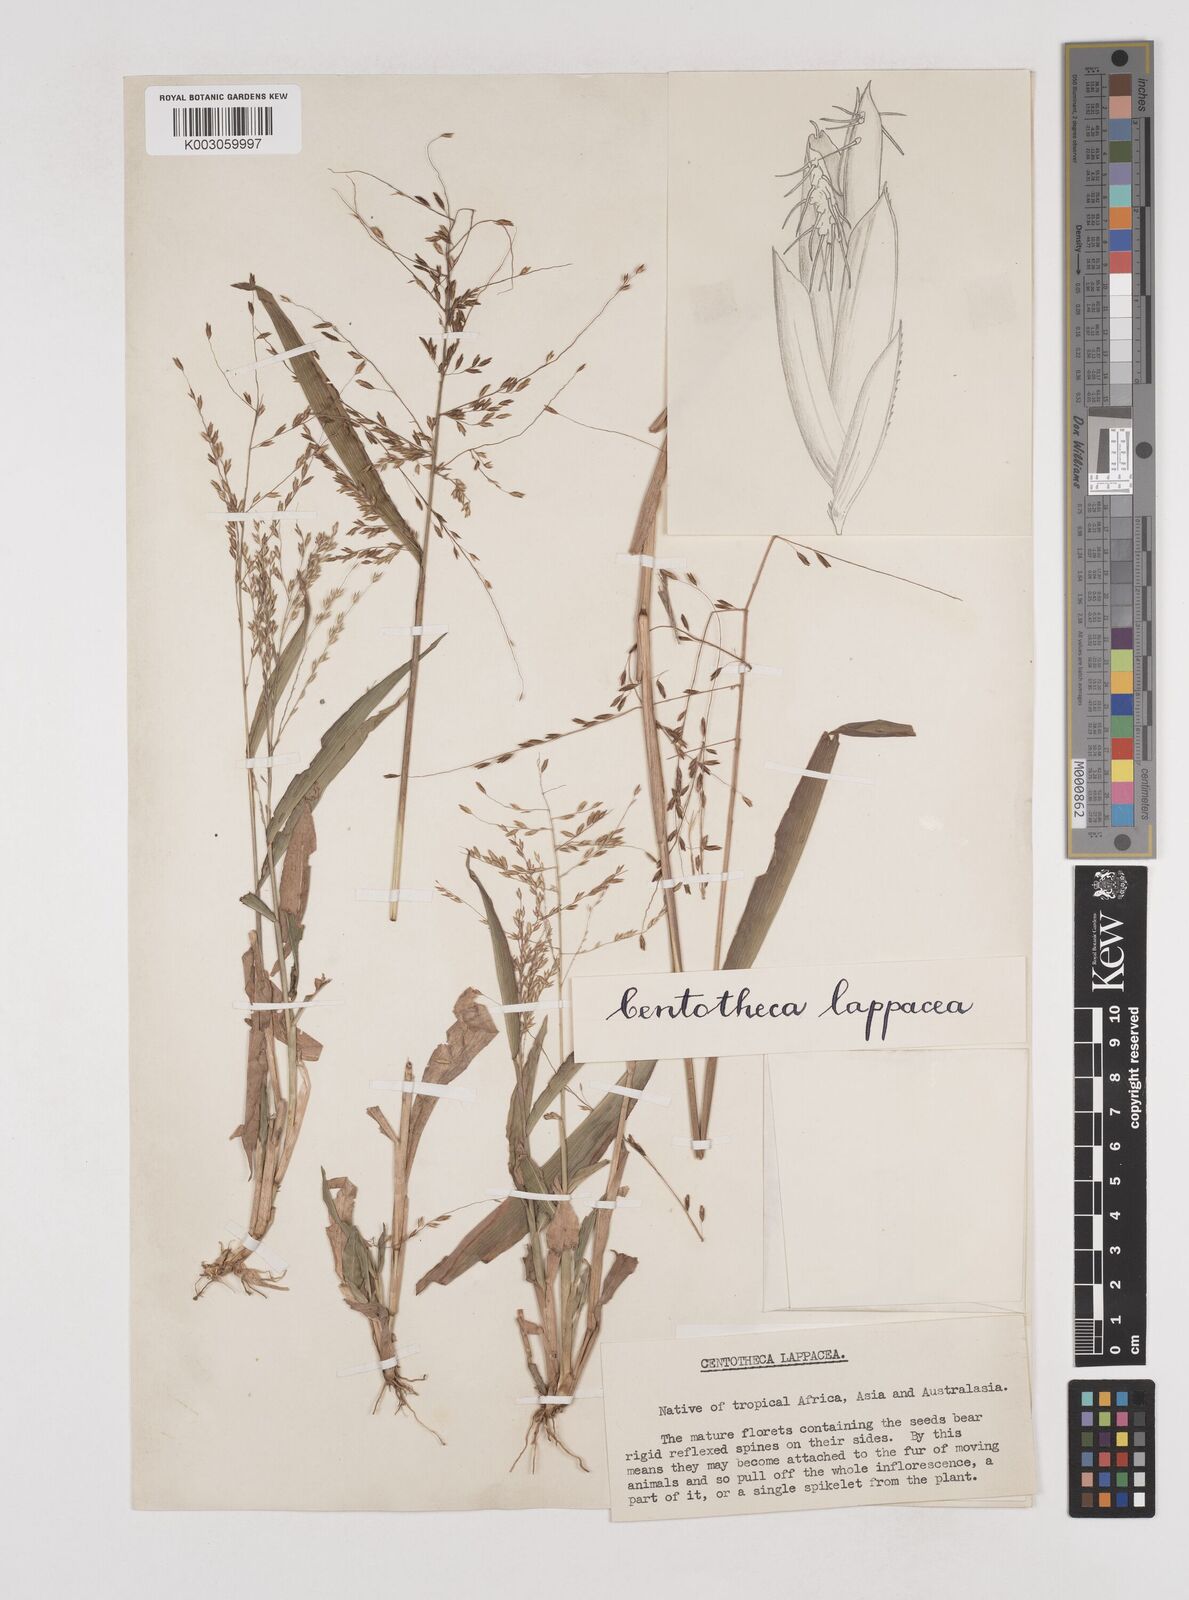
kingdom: Plantae
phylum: Tracheophyta
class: Liliopsida
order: Poales
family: Poaceae
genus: Centotheca
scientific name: Centotheca lappacea
